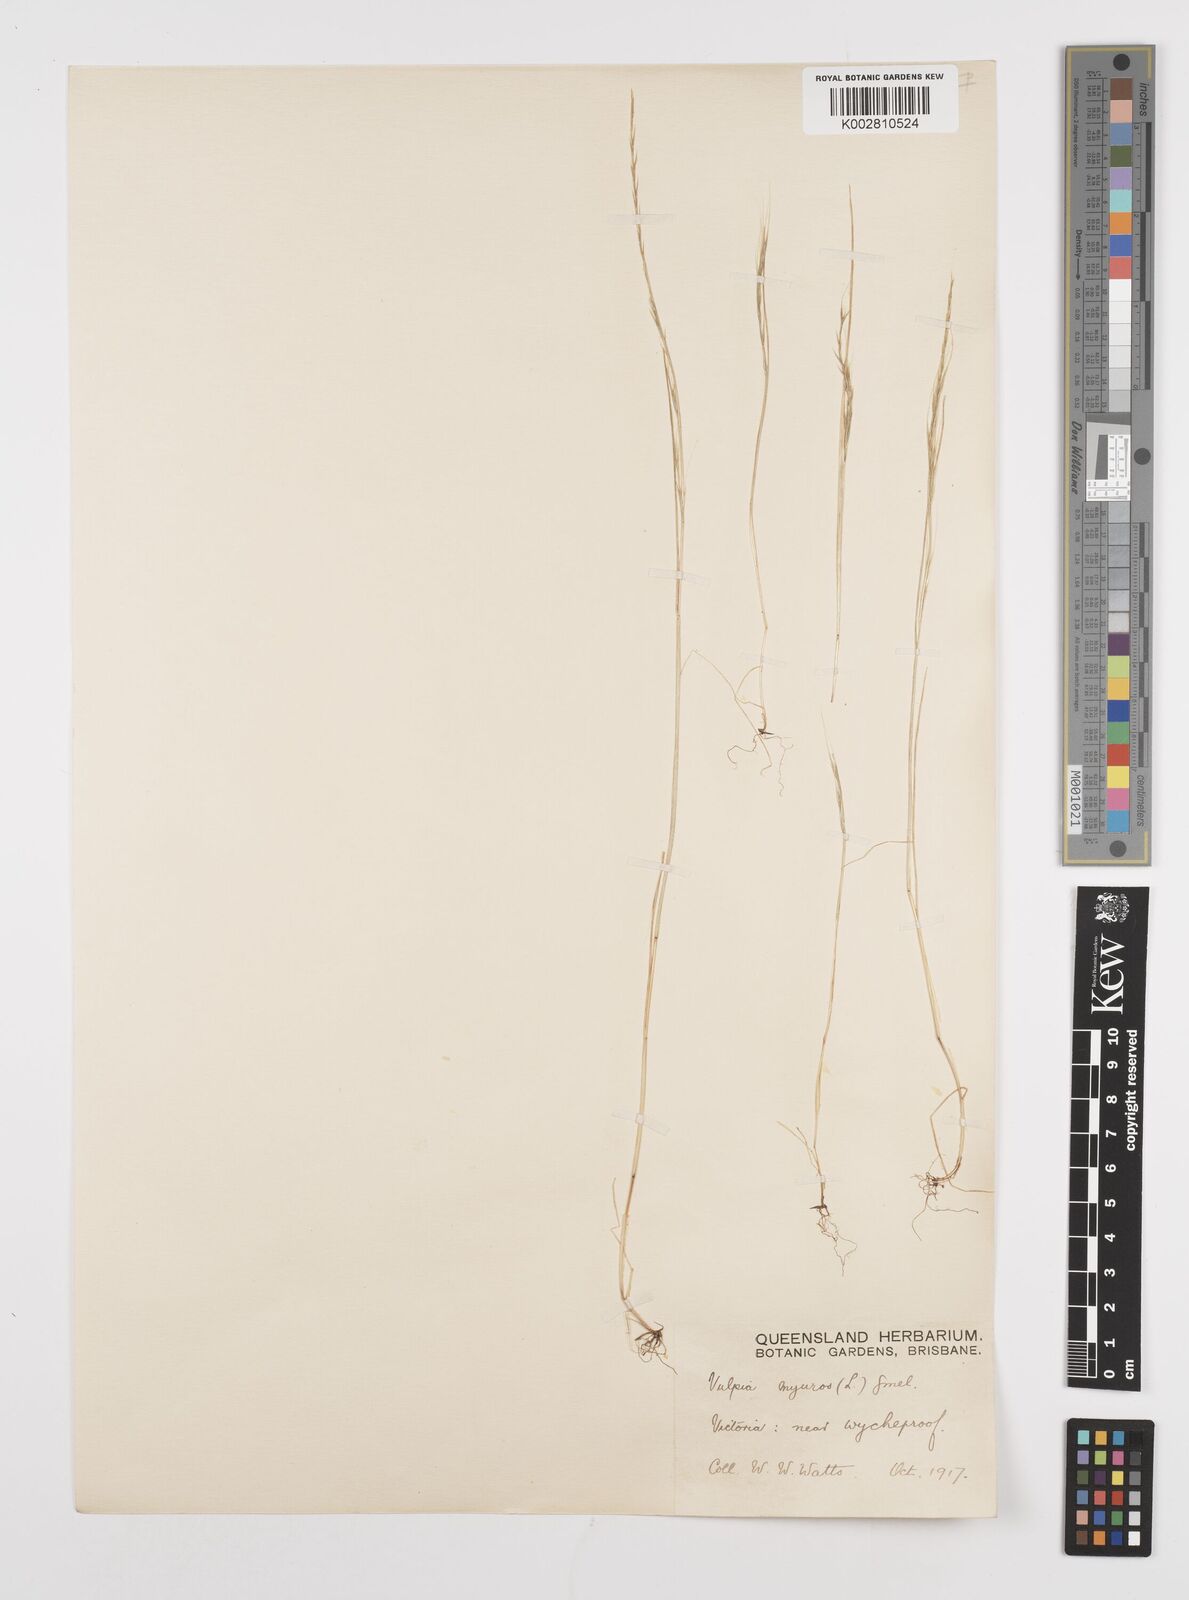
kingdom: Plantae
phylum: Tracheophyta
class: Liliopsida
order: Poales
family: Poaceae
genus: Festuca
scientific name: Festuca myuros
